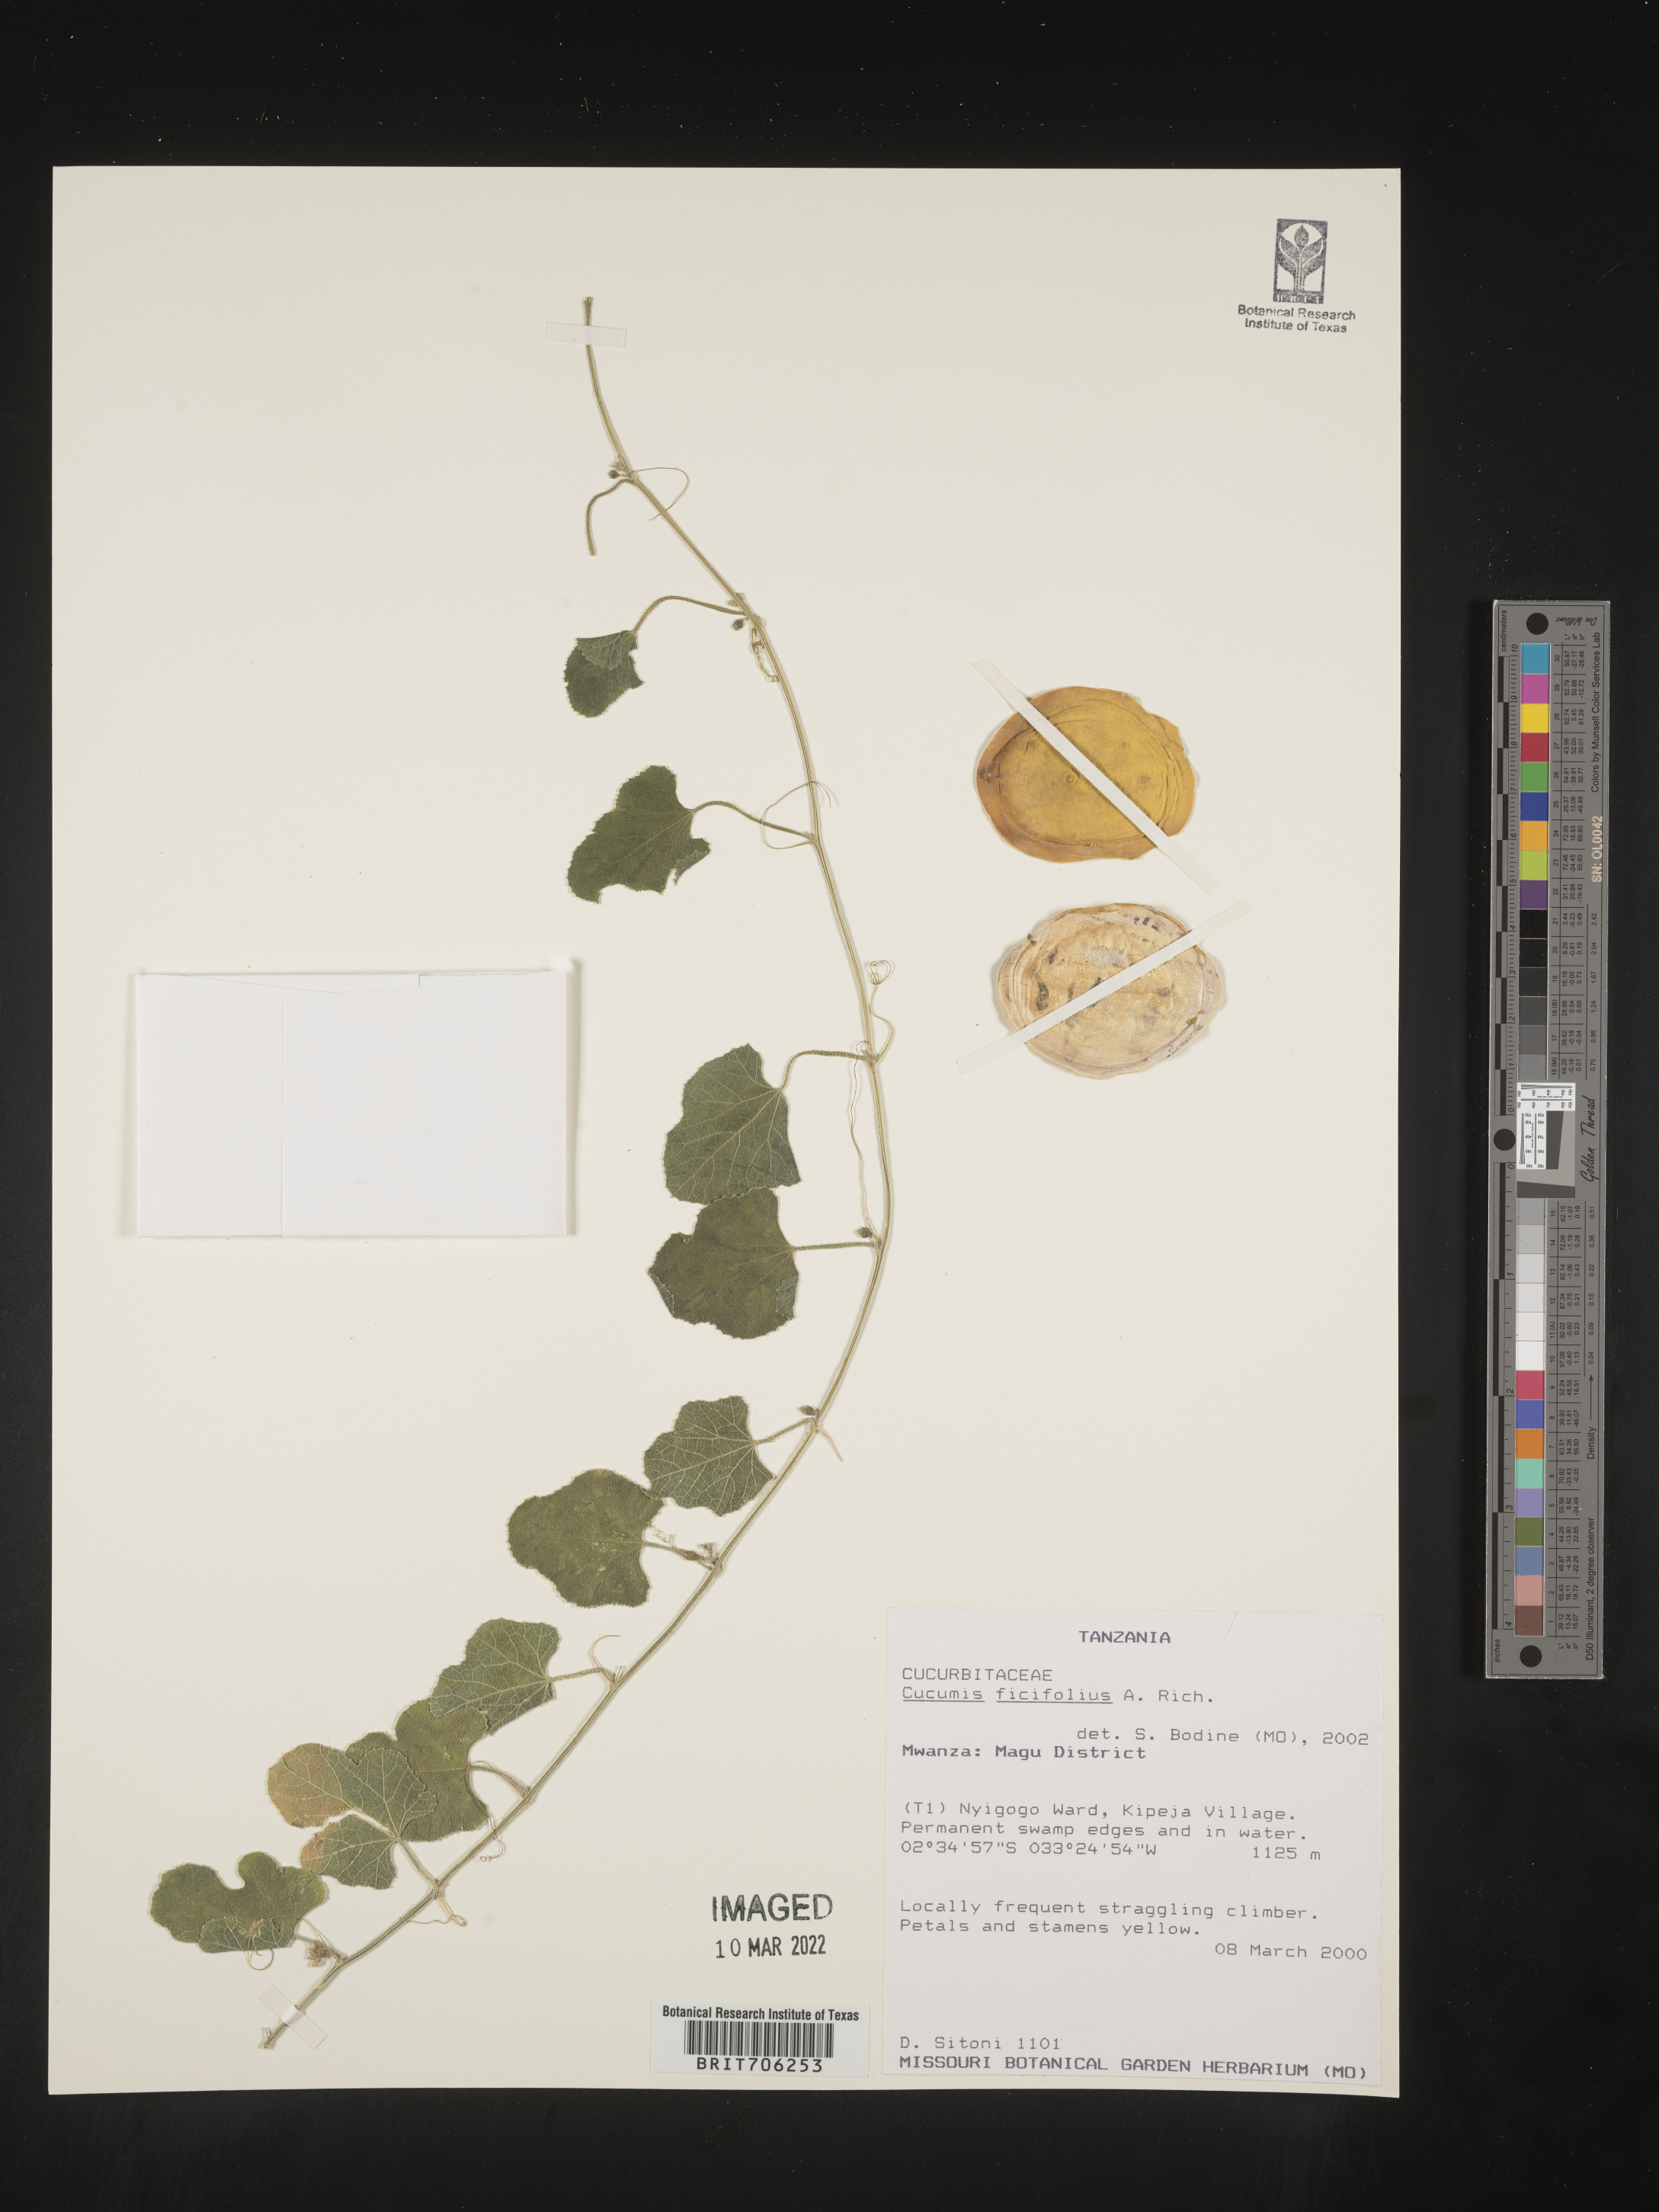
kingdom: Plantae
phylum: Tracheophyta
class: Magnoliopsida
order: Cucurbitales
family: Cucurbitaceae
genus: Cucumis
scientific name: Cucumis
